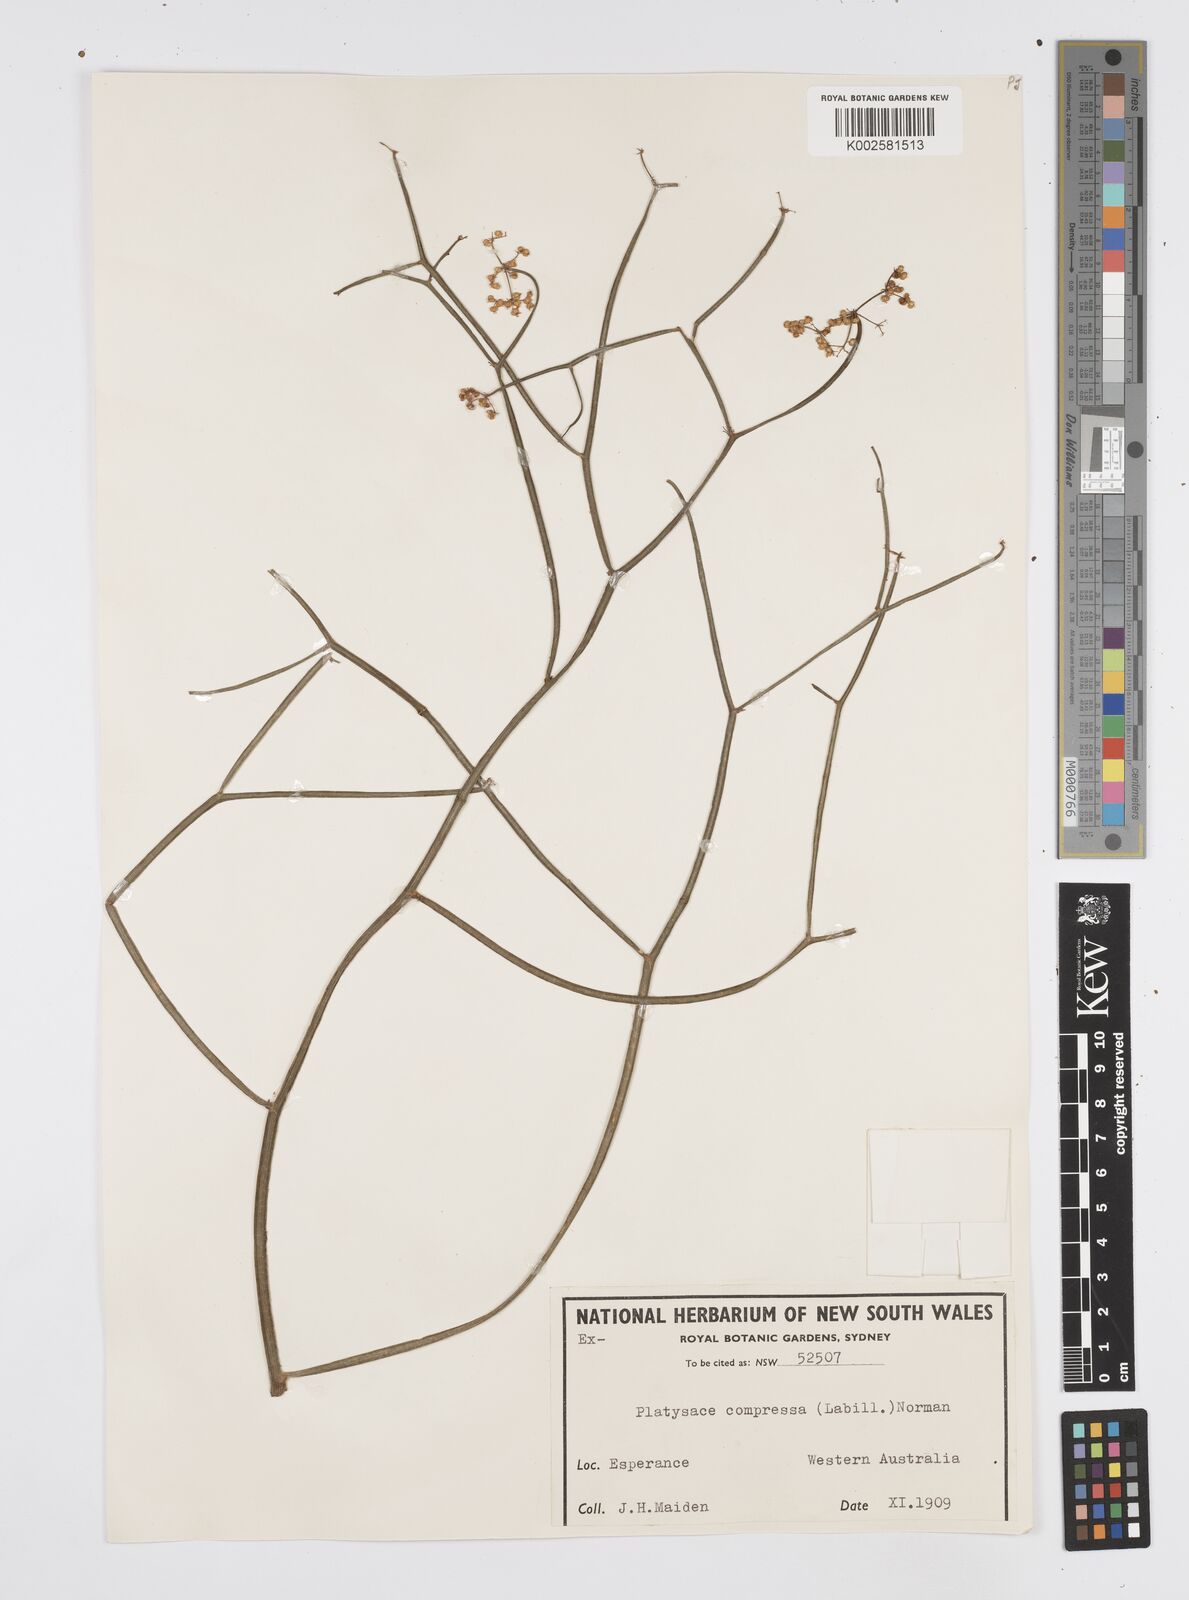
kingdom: Plantae
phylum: Tracheophyta
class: Magnoliopsida
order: Apiales
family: Apiaceae
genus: Centella
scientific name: Centella
